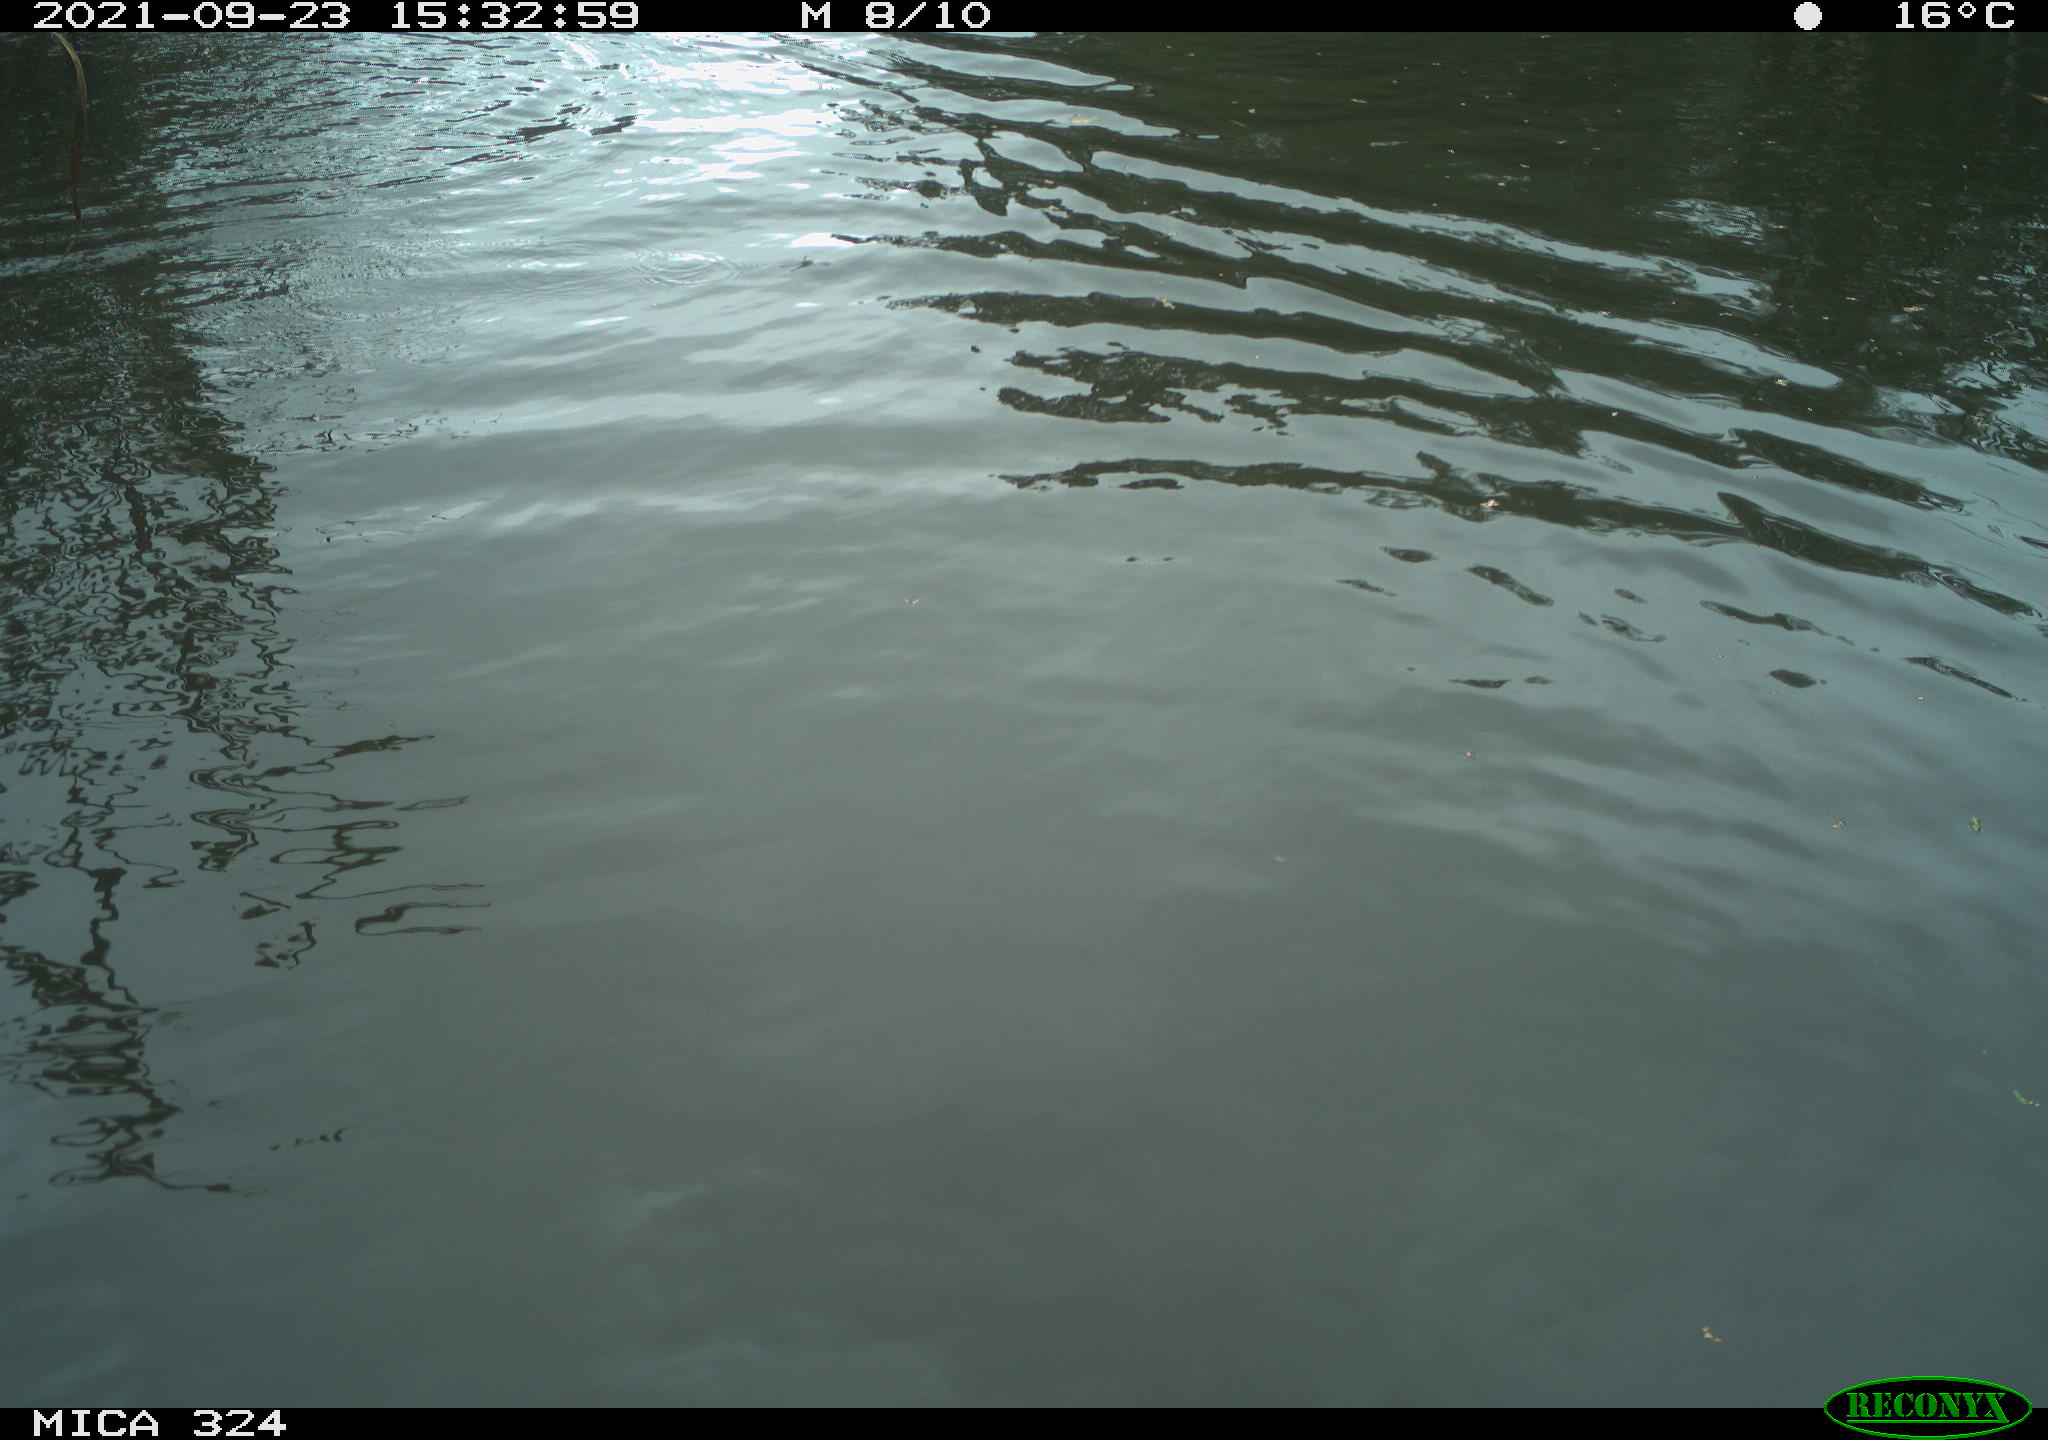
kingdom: Animalia
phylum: Chordata
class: Mammalia
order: Rodentia
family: Cricetidae
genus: Ondatra
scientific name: Ondatra zibethicus
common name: Muskrat
